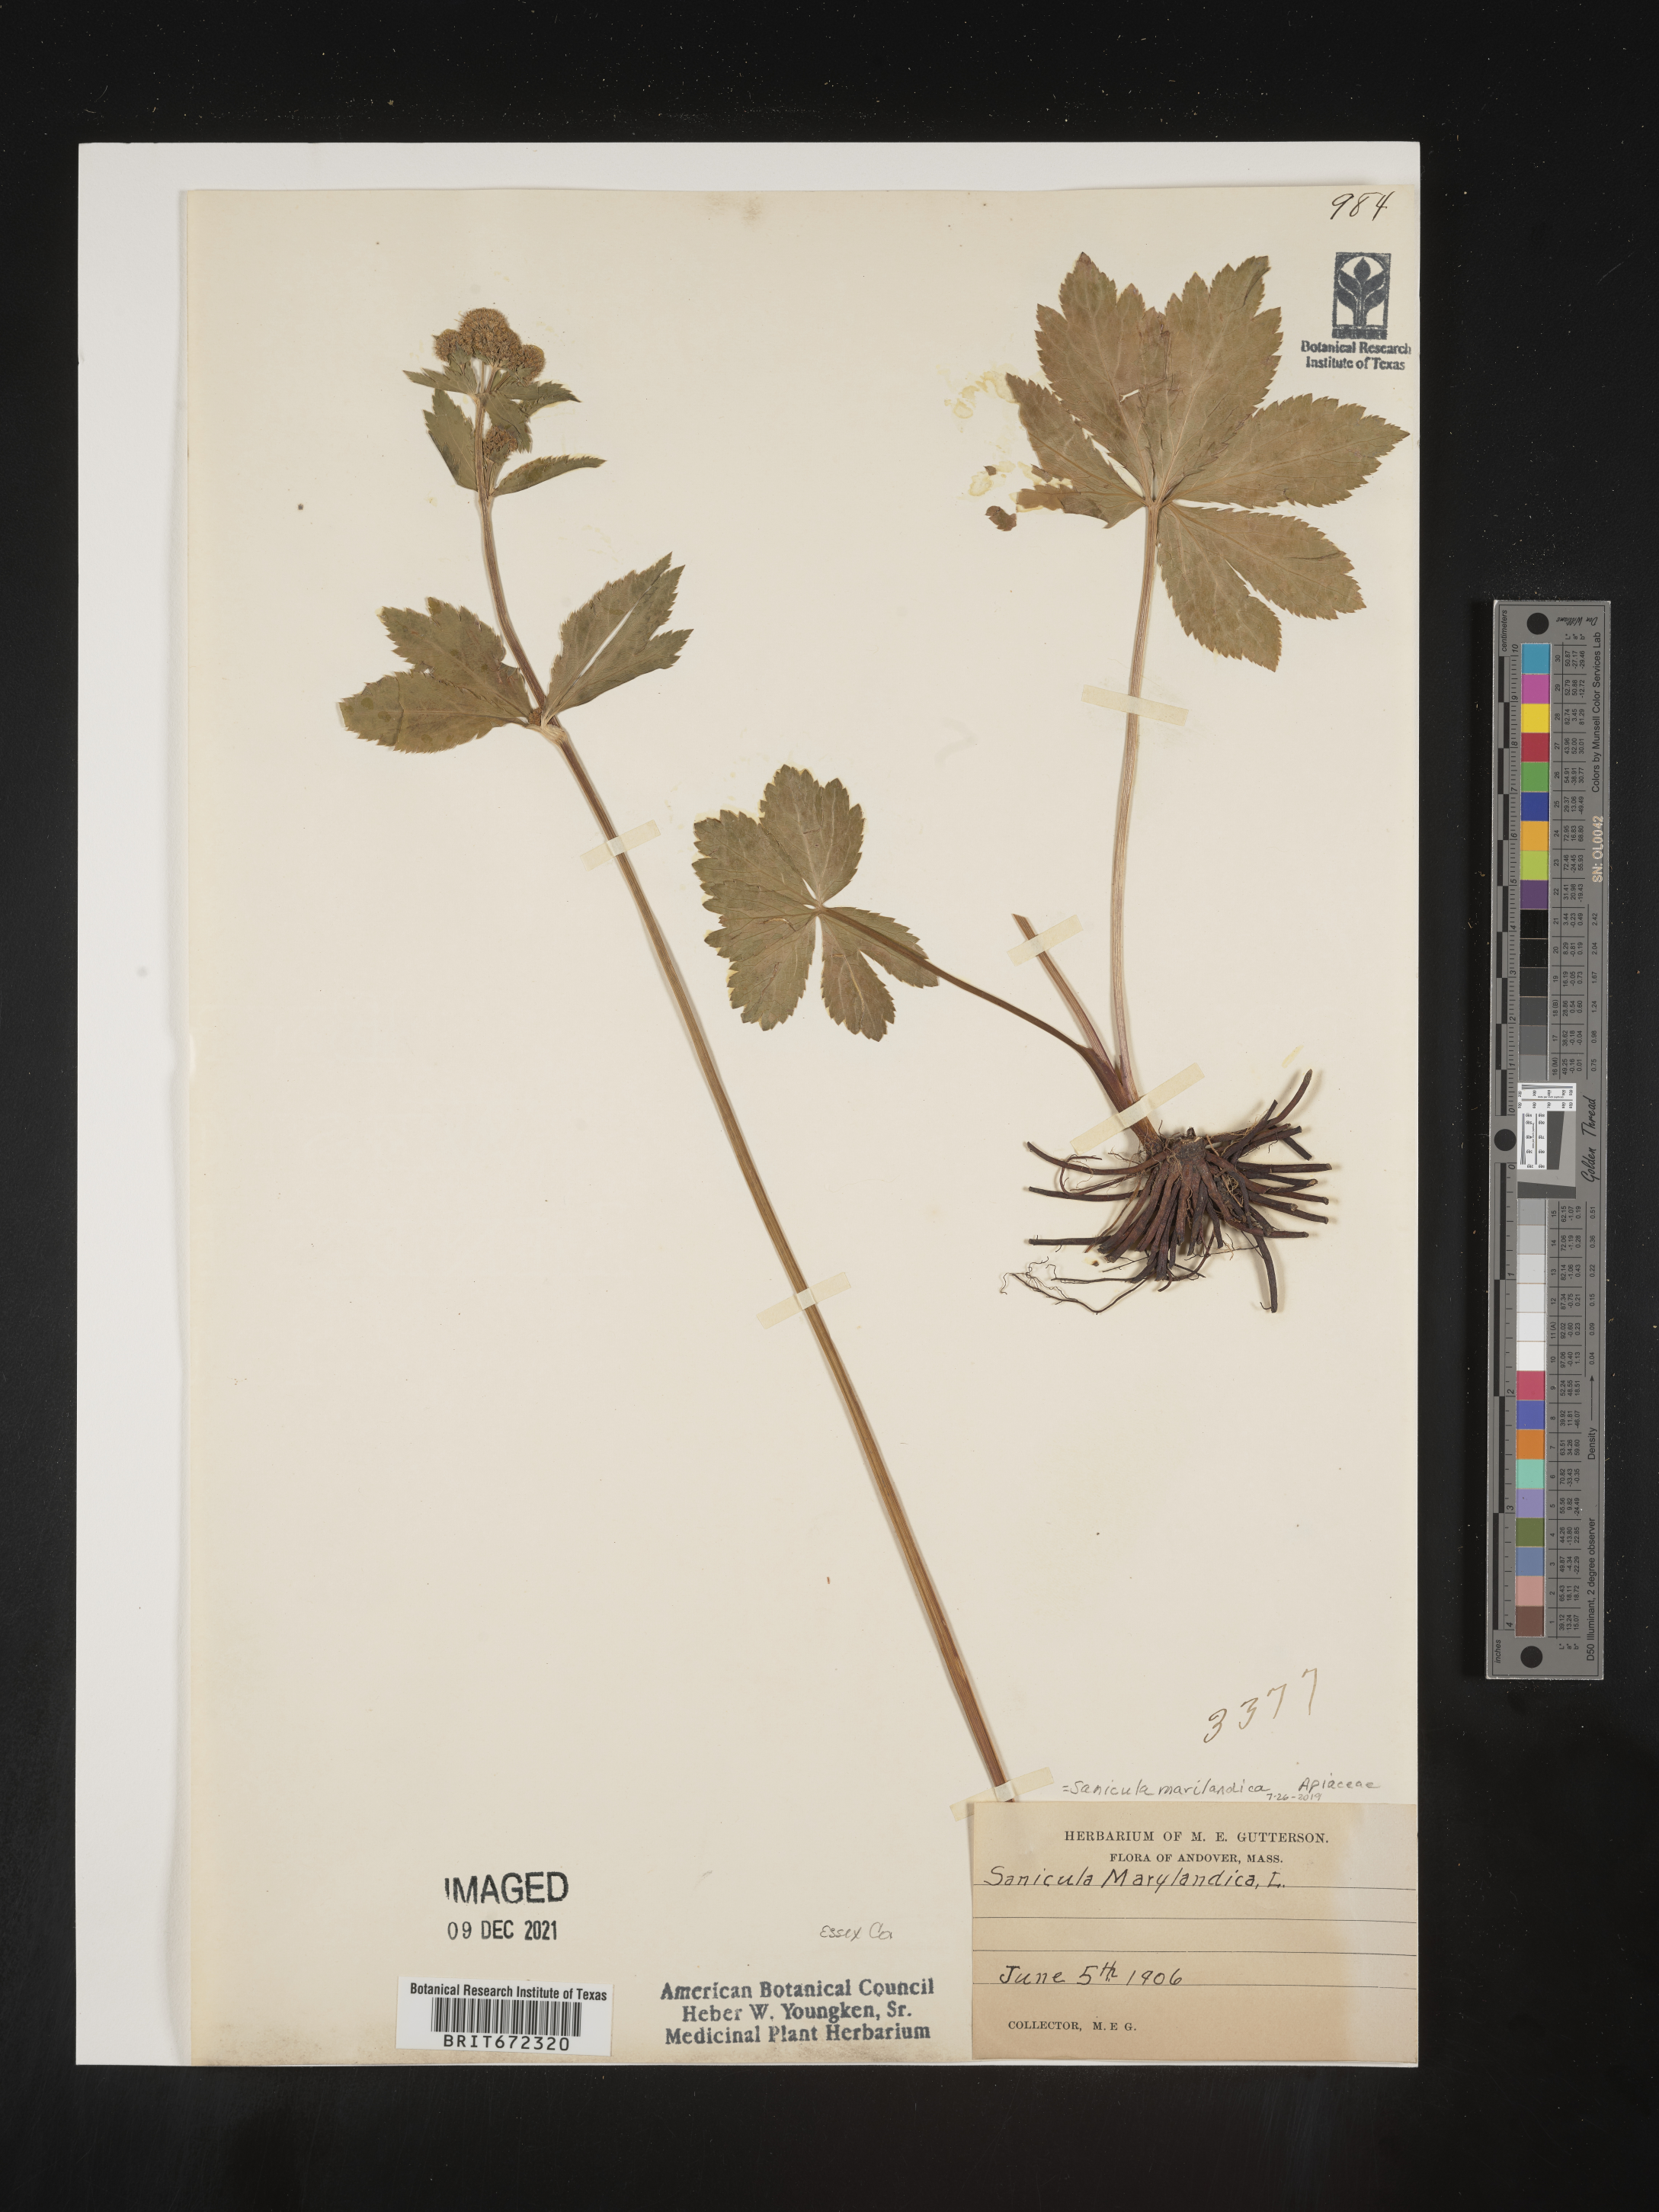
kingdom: Plantae
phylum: Tracheophyta
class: Magnoliopsida
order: Apiales
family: Apiaceae
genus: Sanicula
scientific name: Sanicula marilandica
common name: Black snakeroot
